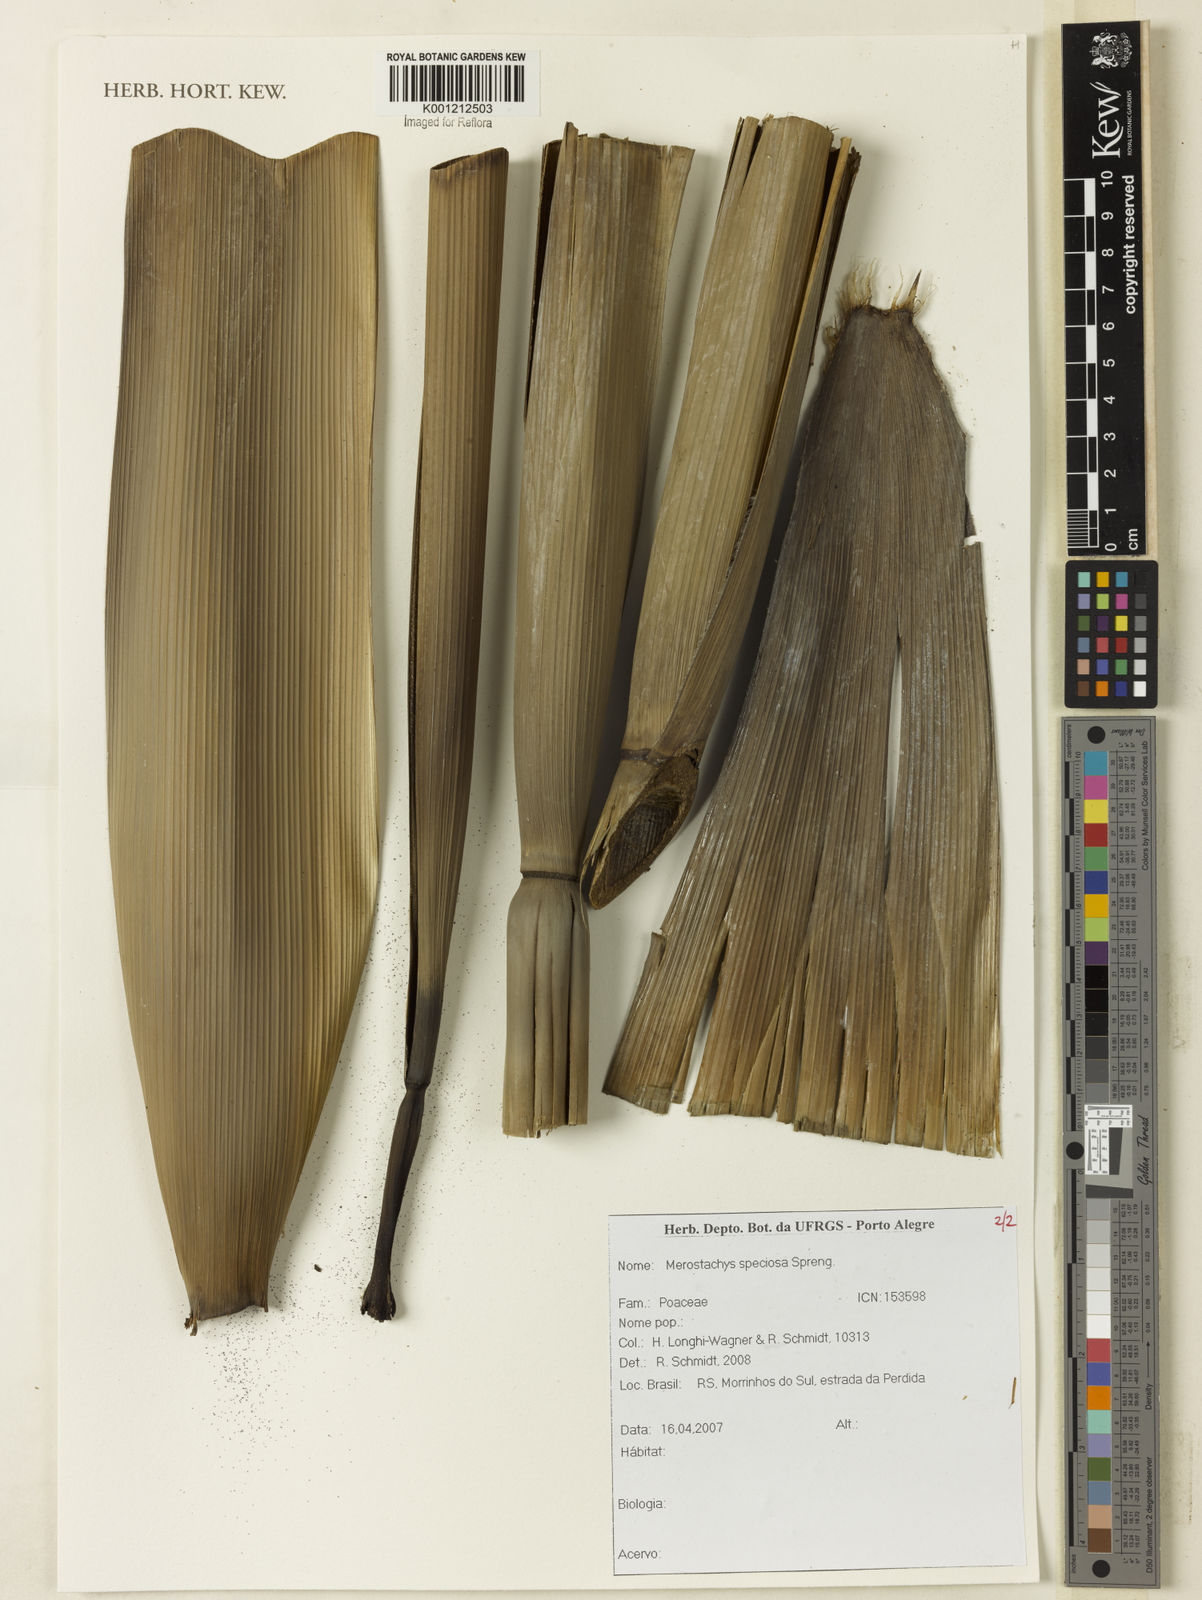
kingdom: Plantae
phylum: Tracheophyta
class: Liliopsida
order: Poales
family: Poaceae
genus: Merostachys
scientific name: Merostachys speciosa
